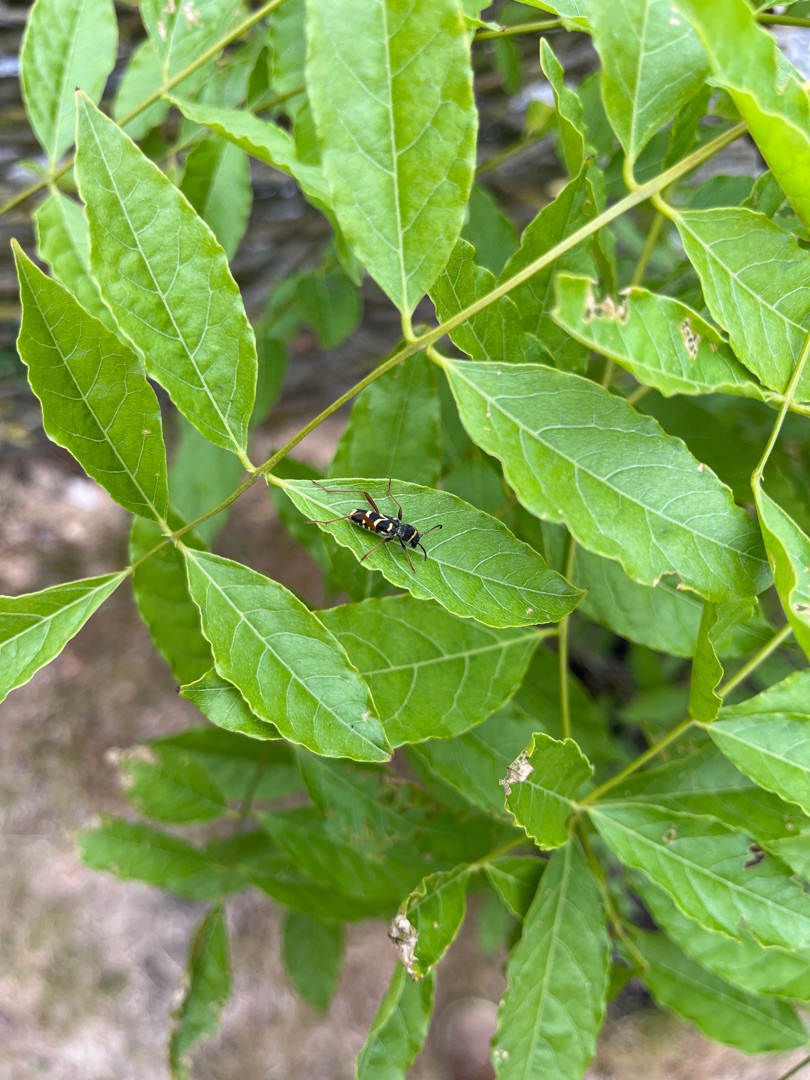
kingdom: Animalia
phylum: Arthropoda
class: Insecta
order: Coleoptera
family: Cerambycidae
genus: Clytus
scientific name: Clytus arietis
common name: Lille hvepsebuk
